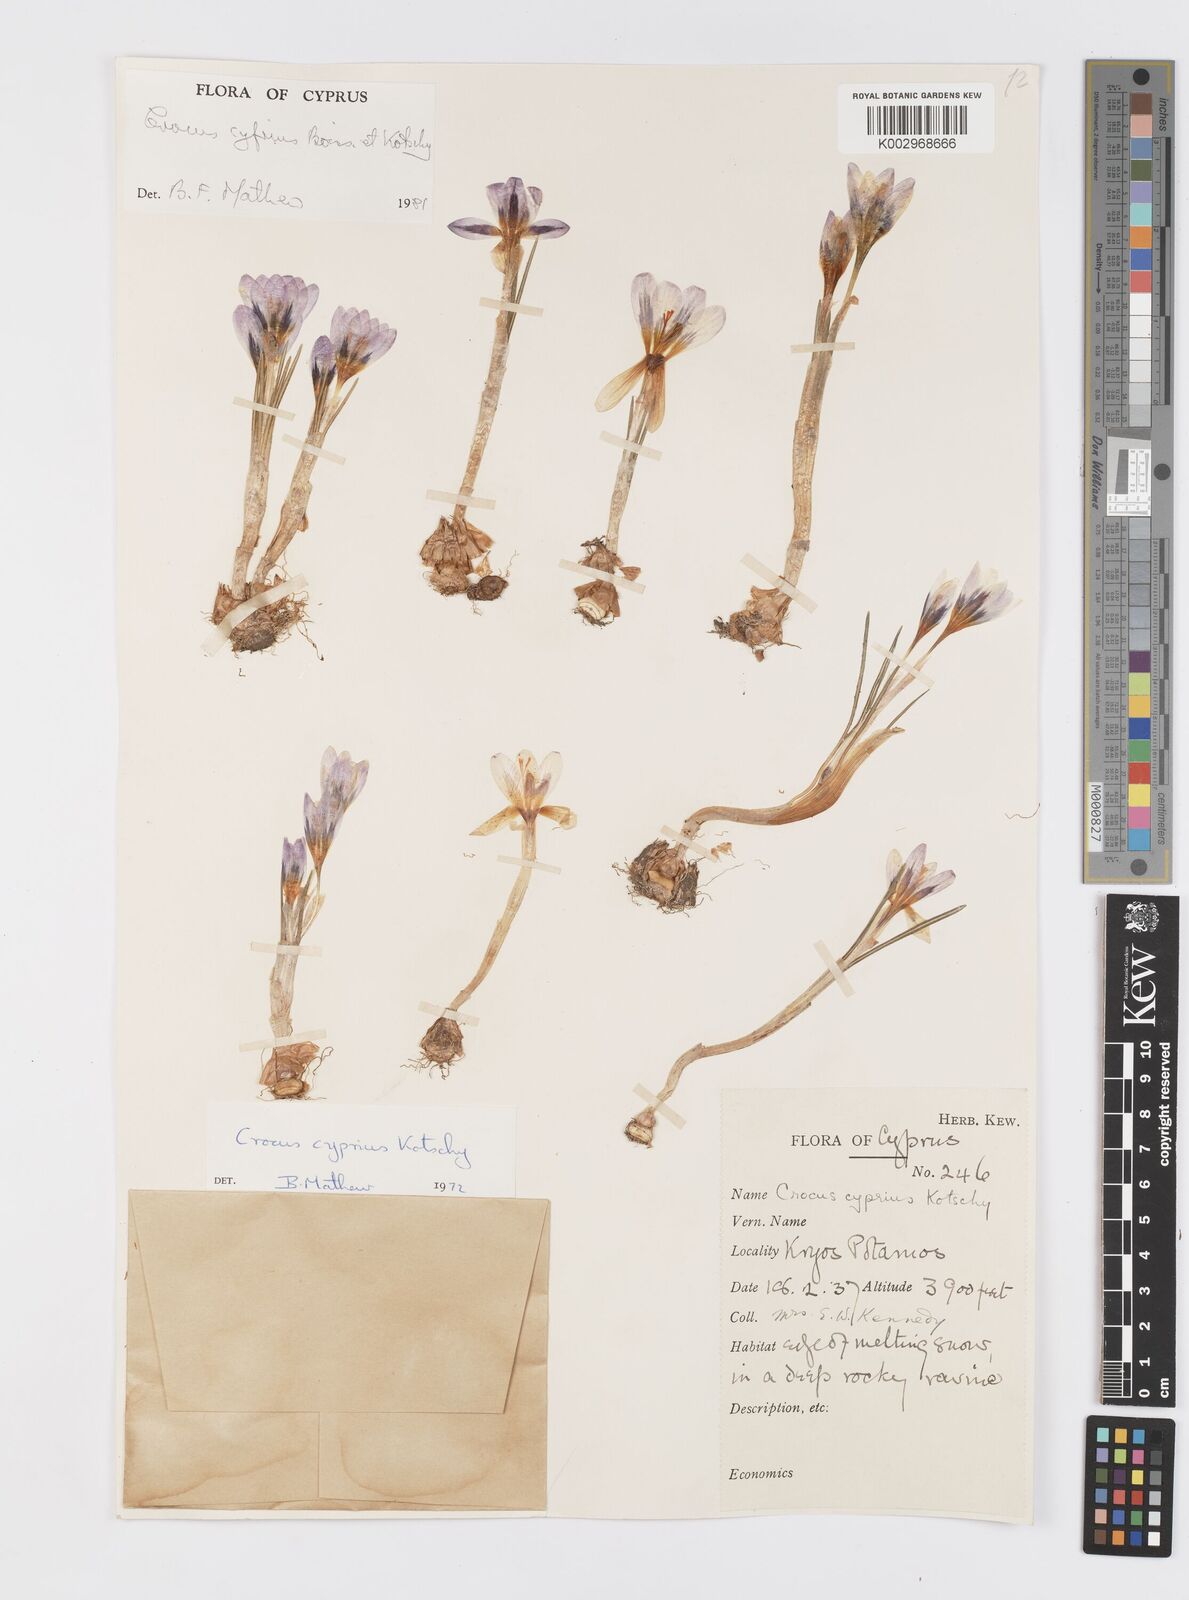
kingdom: Plantae
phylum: Tracheophyta
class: Liliopsida
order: Asparagales
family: Iridaceae
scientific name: Iridaceae
